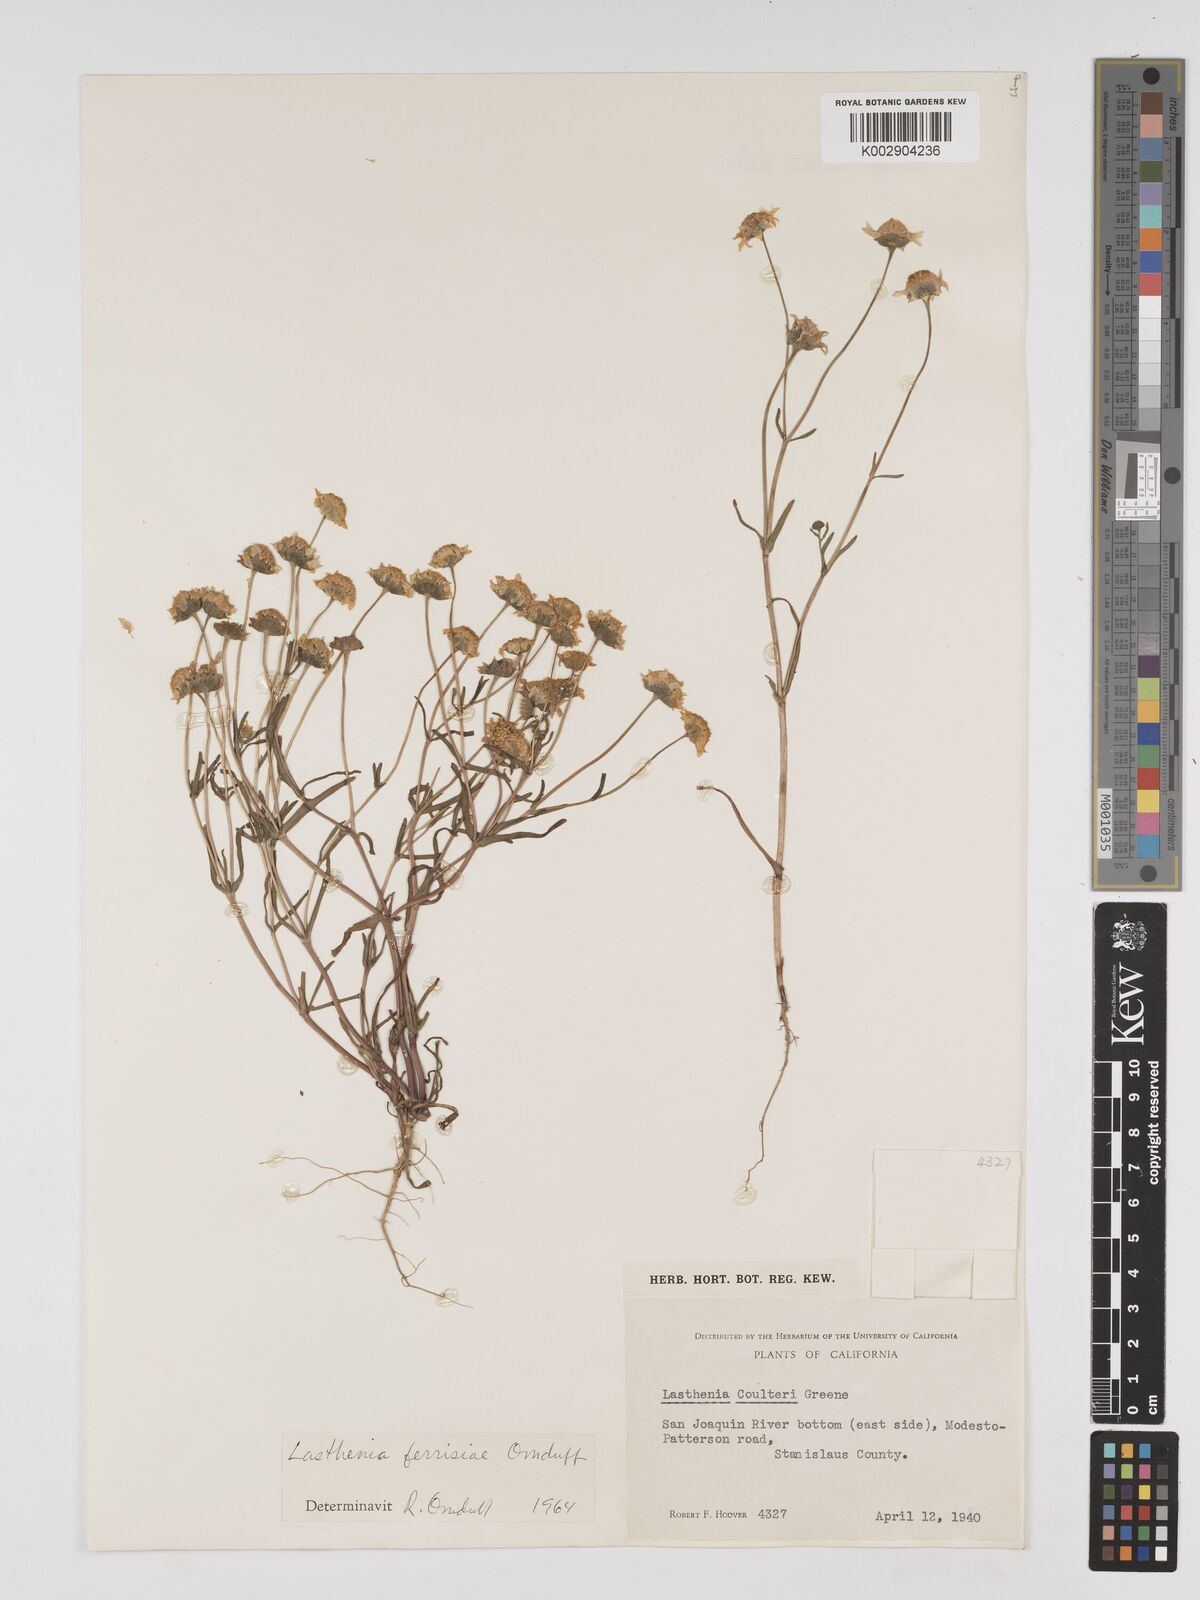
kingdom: Plantae
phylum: Tracheophyta
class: Magnoliopsida
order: Asterales
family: Asteraceae
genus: Lasthenia
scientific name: Lasthenia ferrisiae
